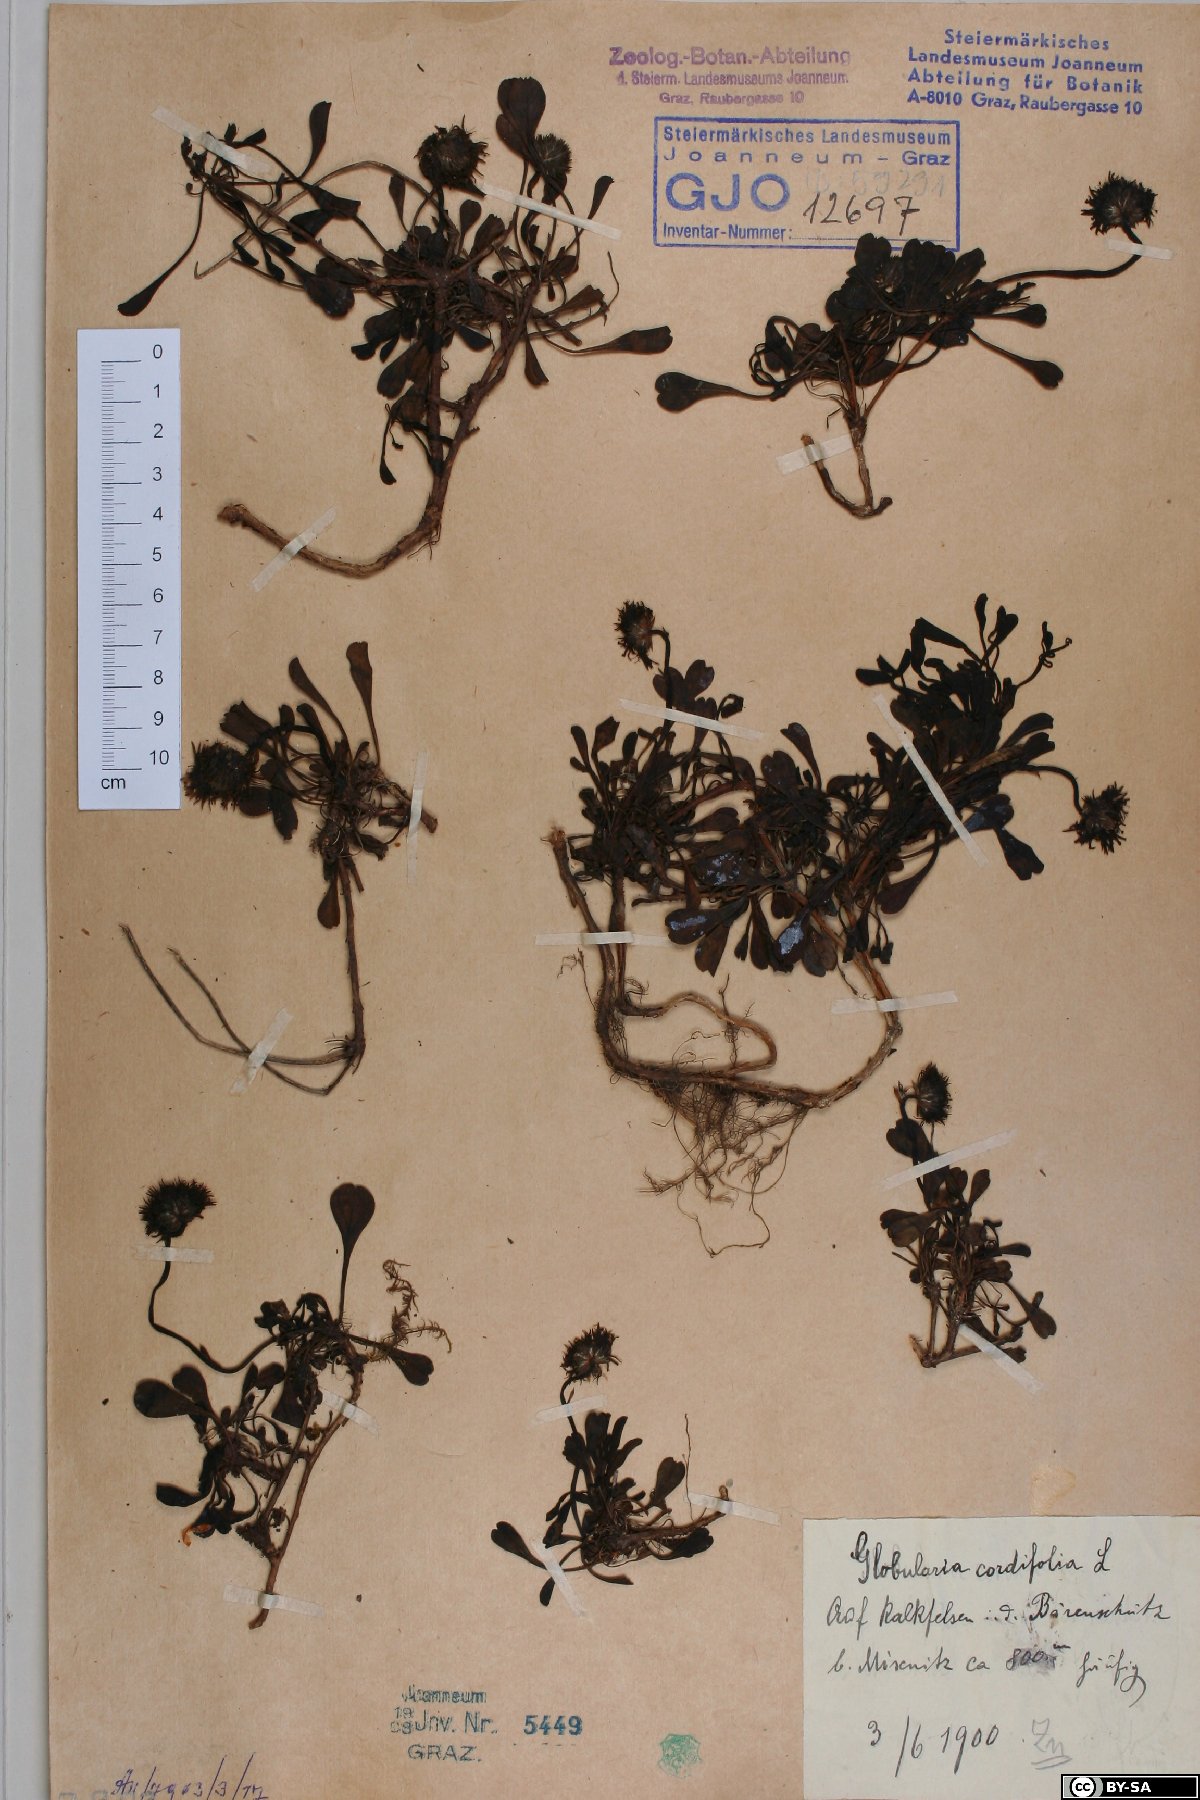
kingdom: Plantae
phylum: Tracheophyta
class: Magnoliopsida
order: Lamiales
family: Plantaginaceae
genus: Globularia
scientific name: Globularia cordifolia
